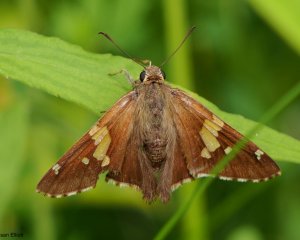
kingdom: Animalia
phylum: Arthropoda
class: Insecta
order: Lepidoptera
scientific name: Lepidoptera
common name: Butterflies
